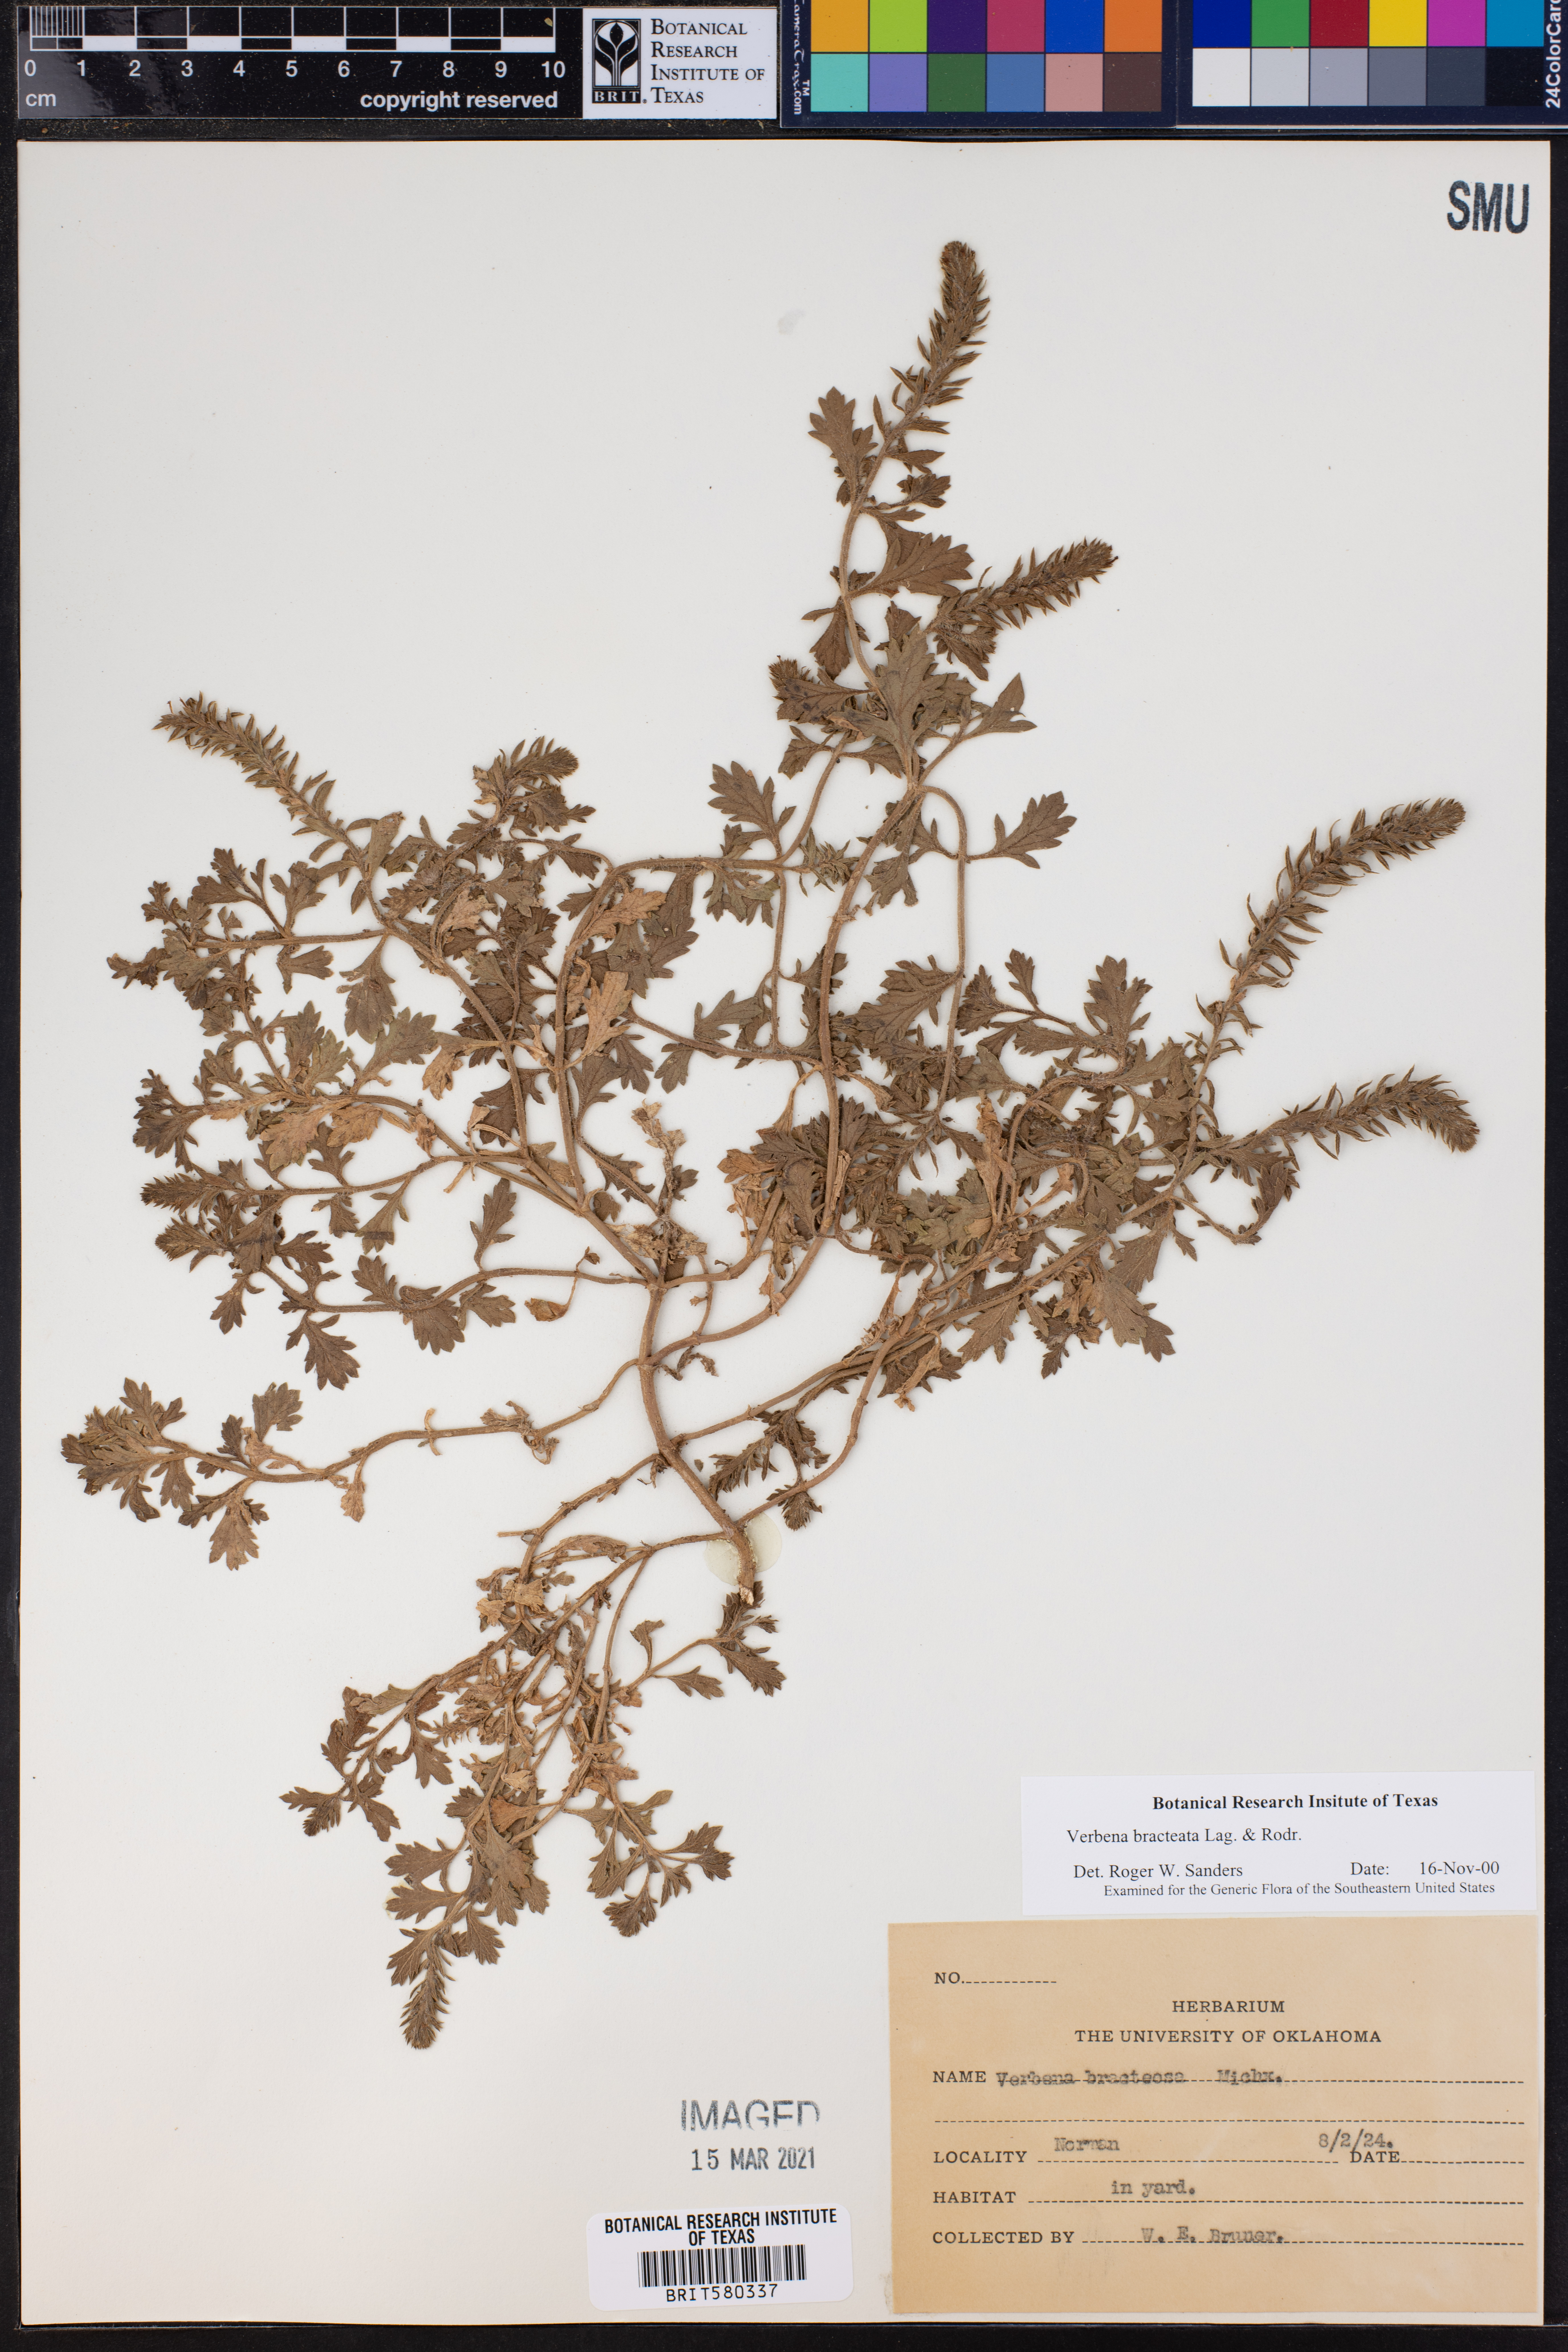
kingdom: Plantae
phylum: Tracheophyta
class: Magnoliopsida
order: Lamiales
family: Verbenaceae
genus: Verbena
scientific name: Verbena bracteata
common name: Bracted vervain
